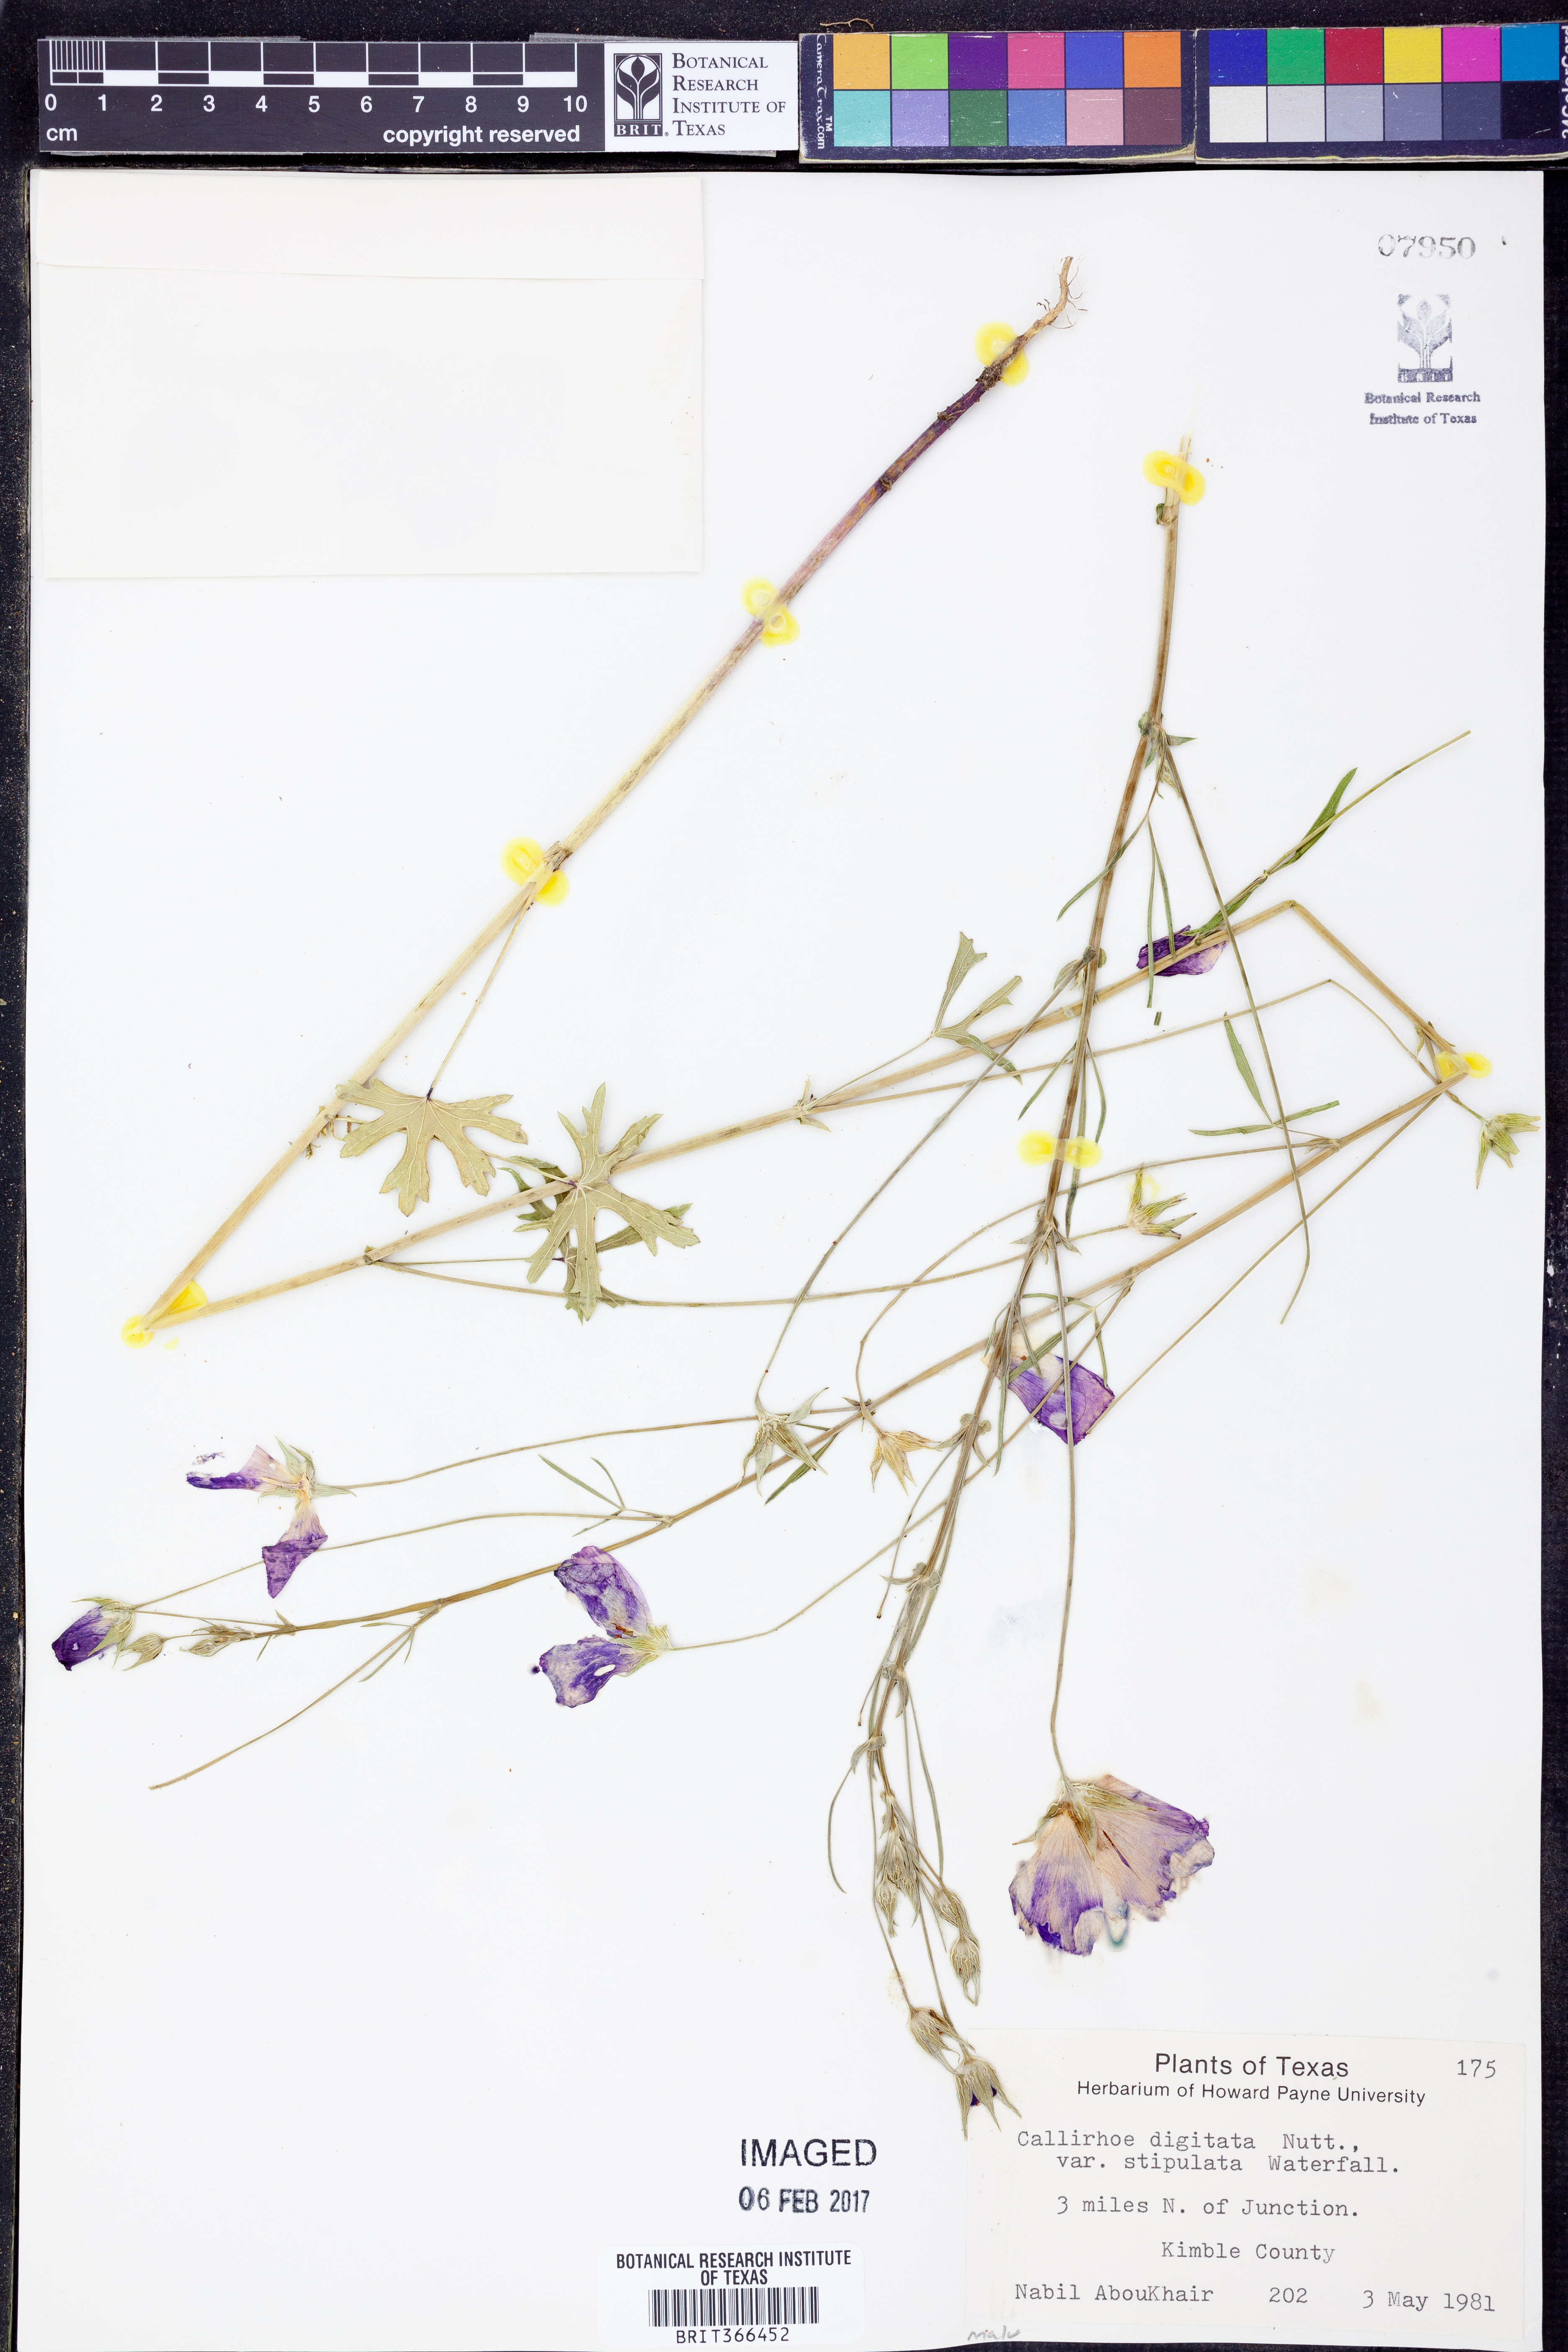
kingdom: Plantae
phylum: Tracheophyta
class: Magnoliopsida
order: Malvales
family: Malvaceae
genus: Callirhoe
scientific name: Callirhoe pedata
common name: Finger poppy-mallow
